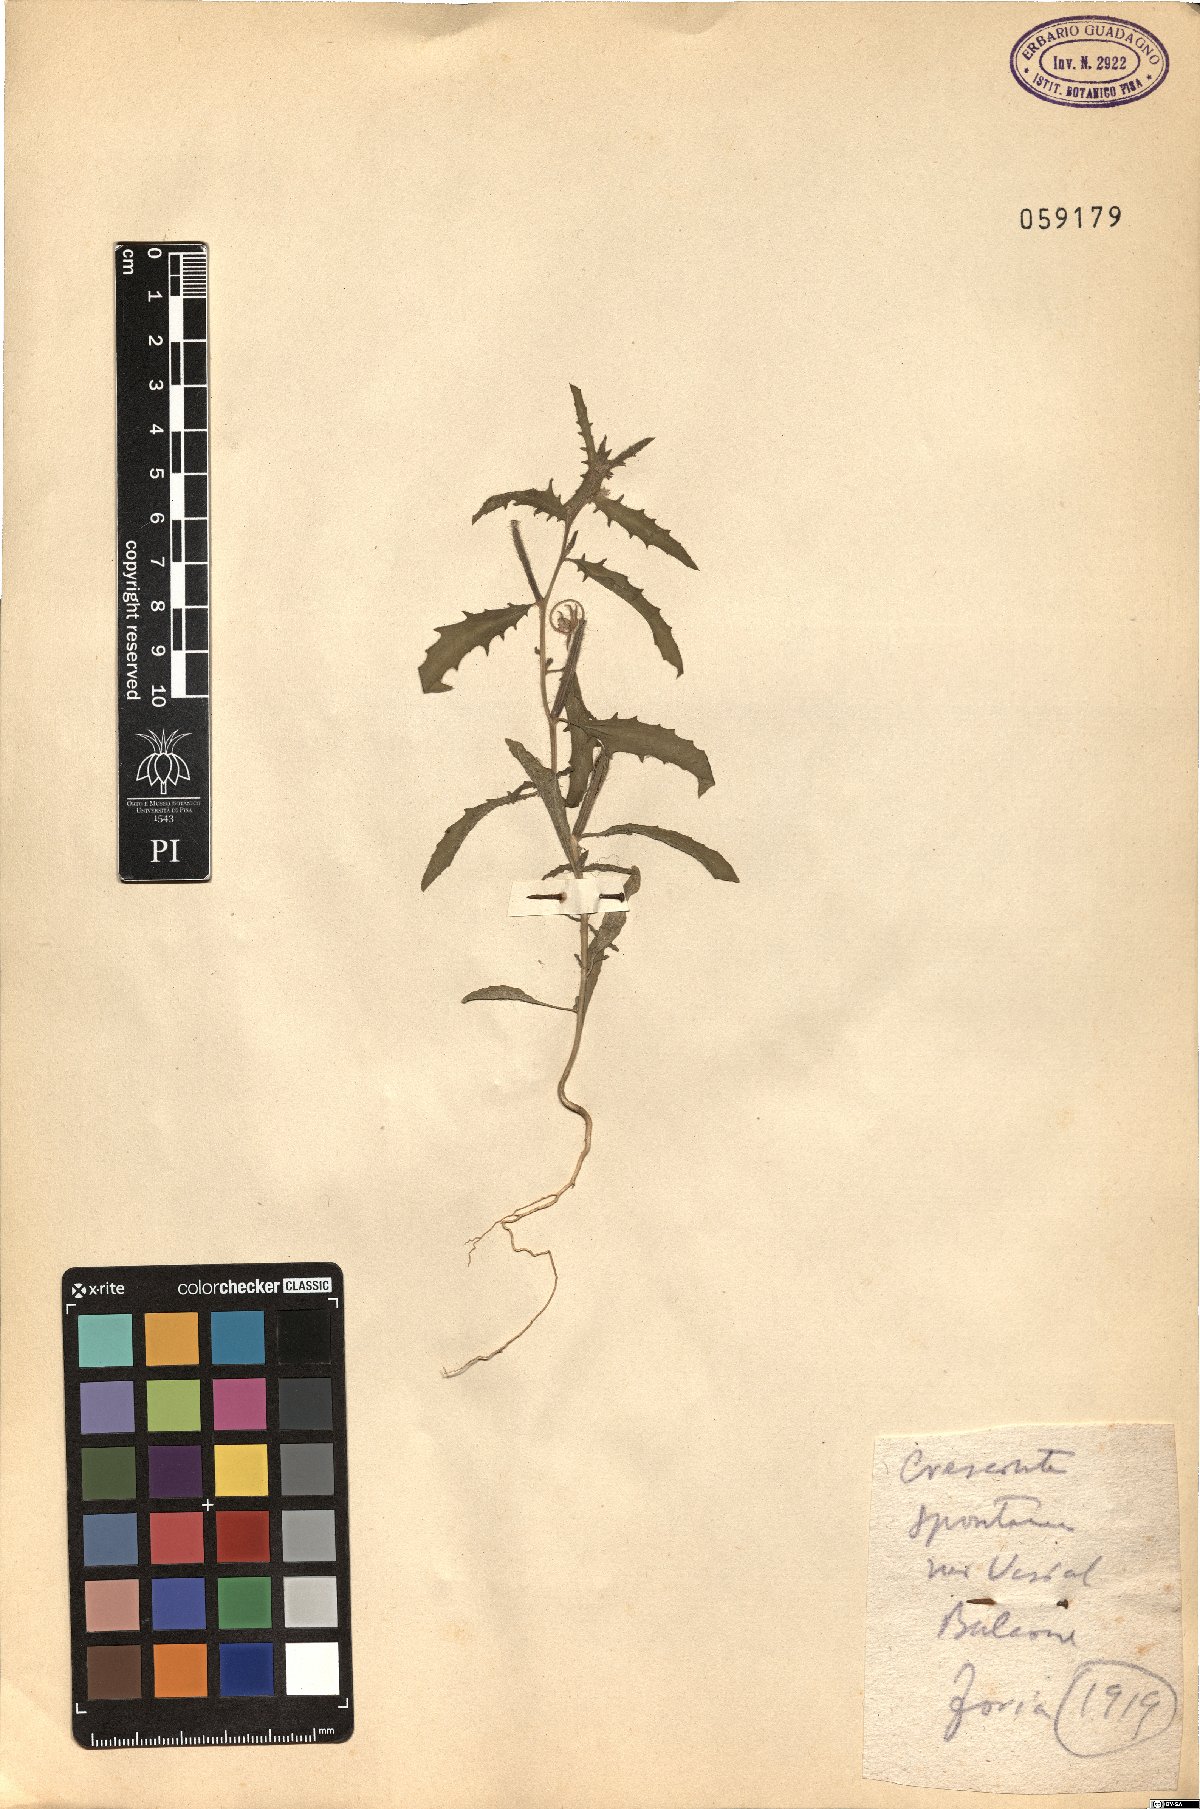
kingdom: Plantae
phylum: Tracheophyta
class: Magnoliopsida
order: Myrtales
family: Onagraceae
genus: Epilobium
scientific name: Epilobium
